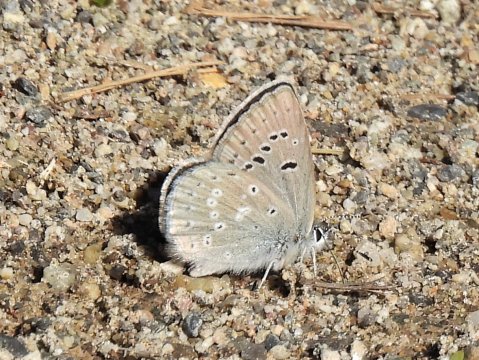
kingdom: Animalia
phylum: Arthropoda
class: Insecta
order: Lepidoptera
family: Lycaenidae
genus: Agriades
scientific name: Agriades glandon
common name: Arctic Blue
